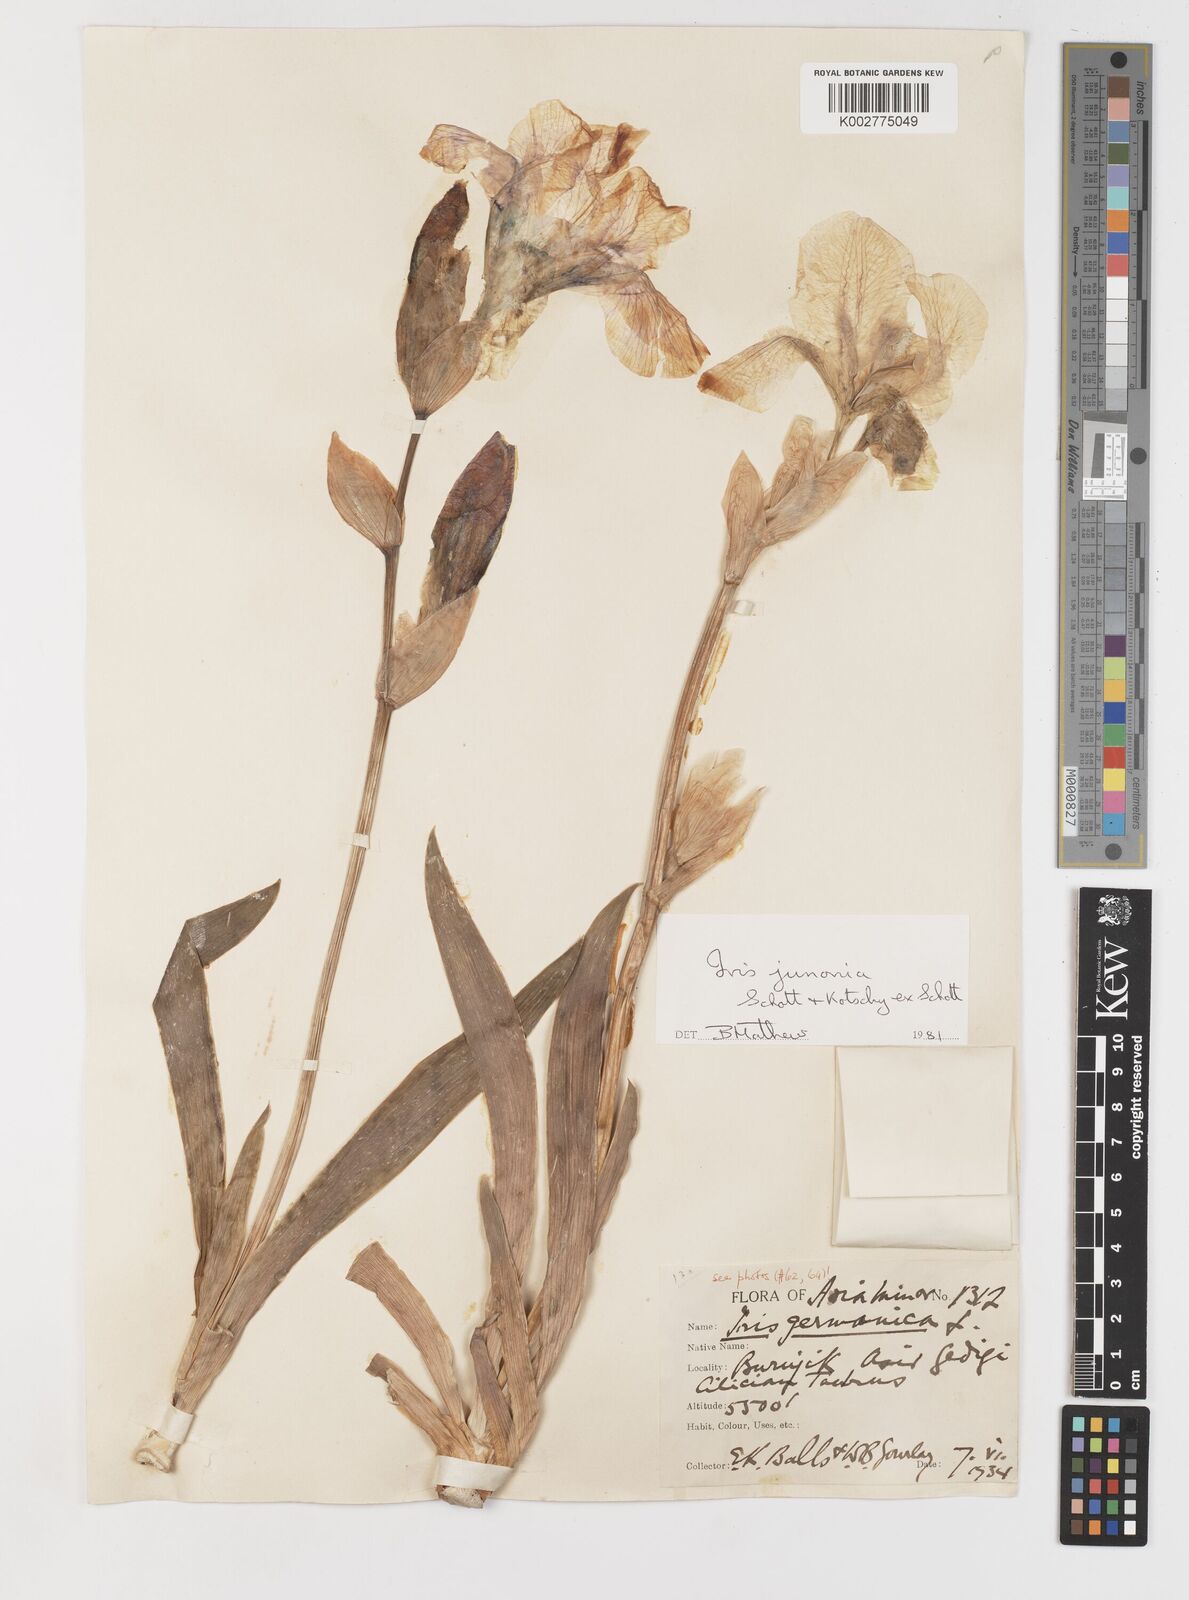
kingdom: Plantae
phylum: Tracheophyta
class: Liliopsida
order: Asparagales
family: Iridaceae
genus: Iris
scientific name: Iris junonia
